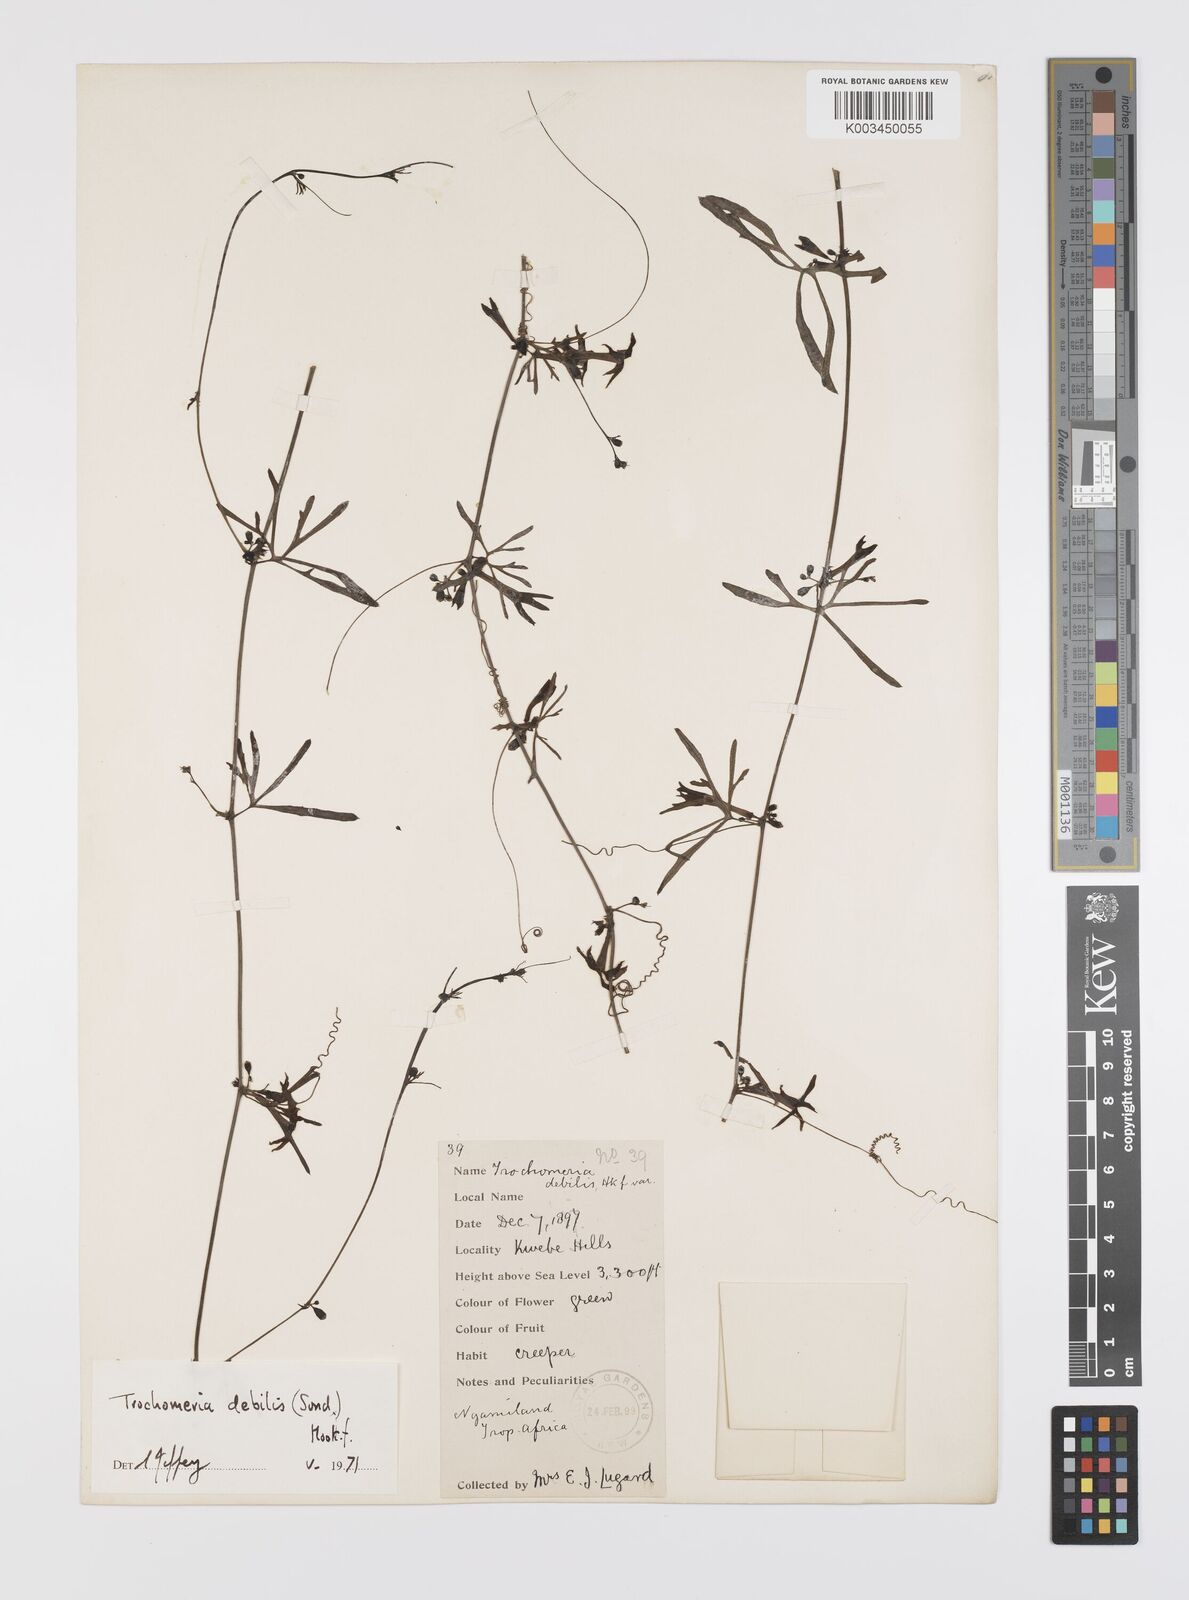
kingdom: Plantae
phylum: Tracheophyta
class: Magnoliopsida
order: Cucurbitales
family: Cucurbitaceae
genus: Trochomeria
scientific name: Trochomeria debilis
